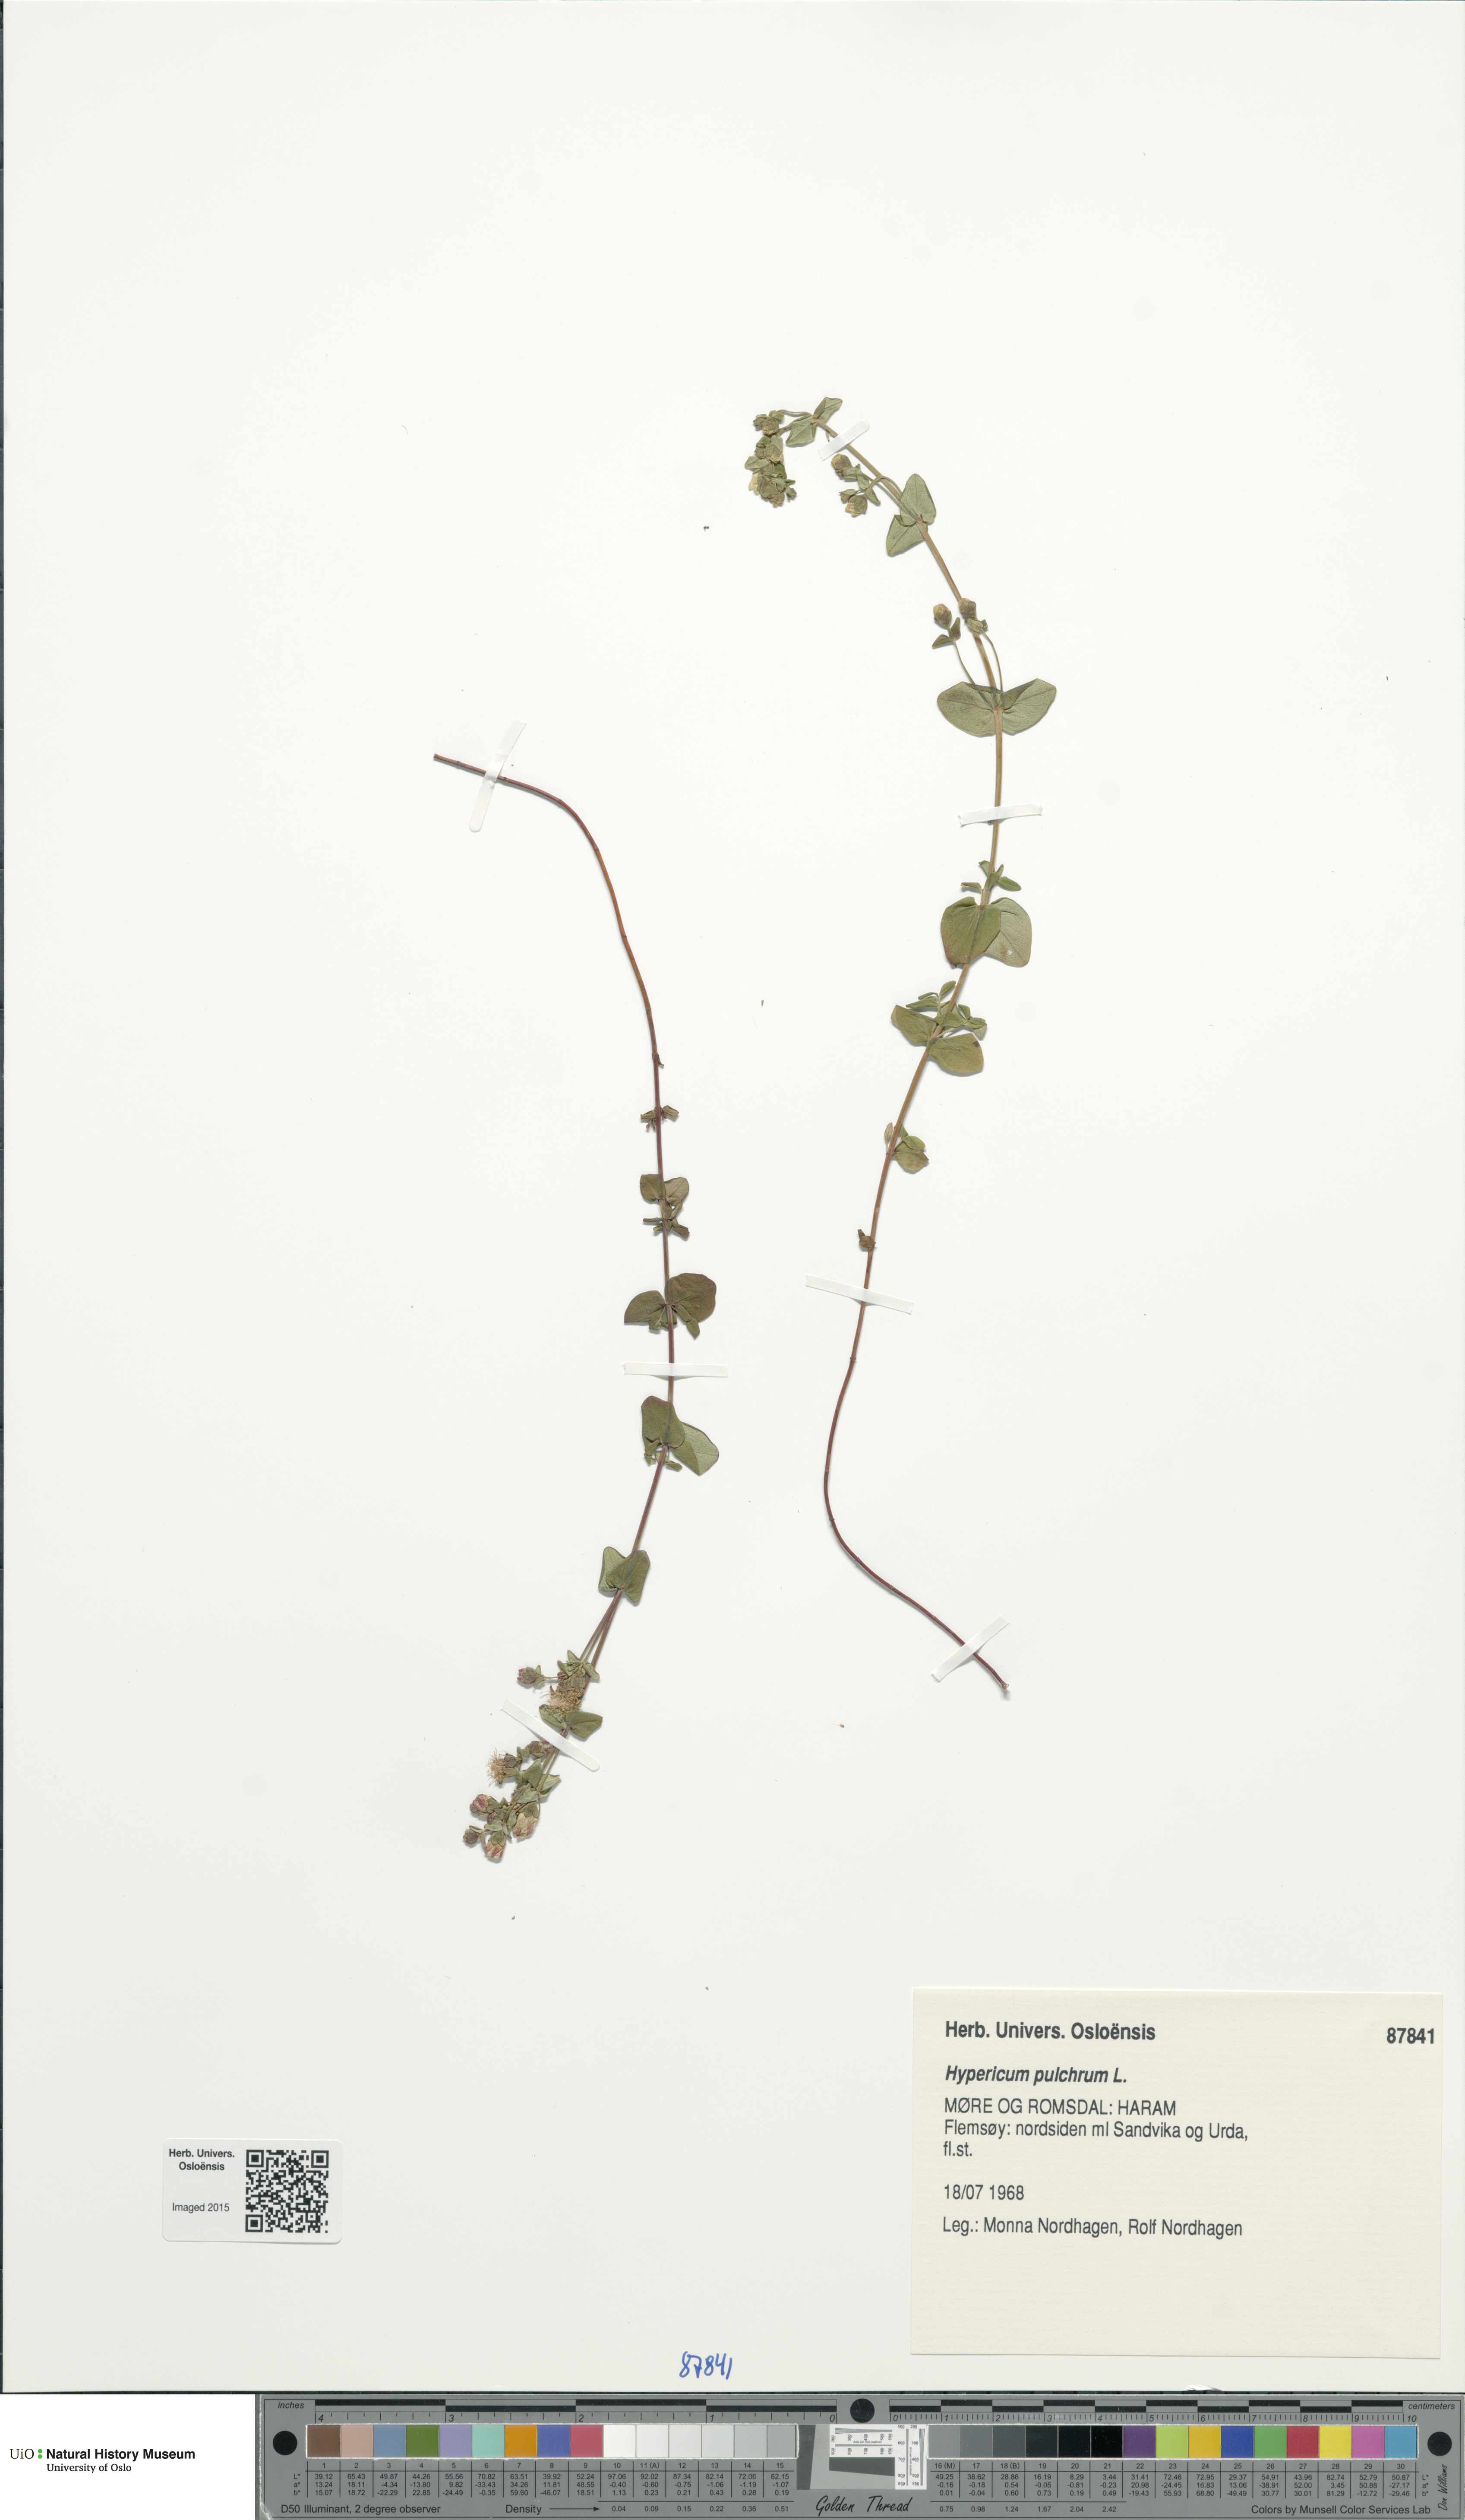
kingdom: Plantae
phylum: Tracheophyta
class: Magnoliopsida
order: Malpighiales
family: Hypericaceae
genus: Hypericum
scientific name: Hypericum pulchrum
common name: Slender st. john's-wort
